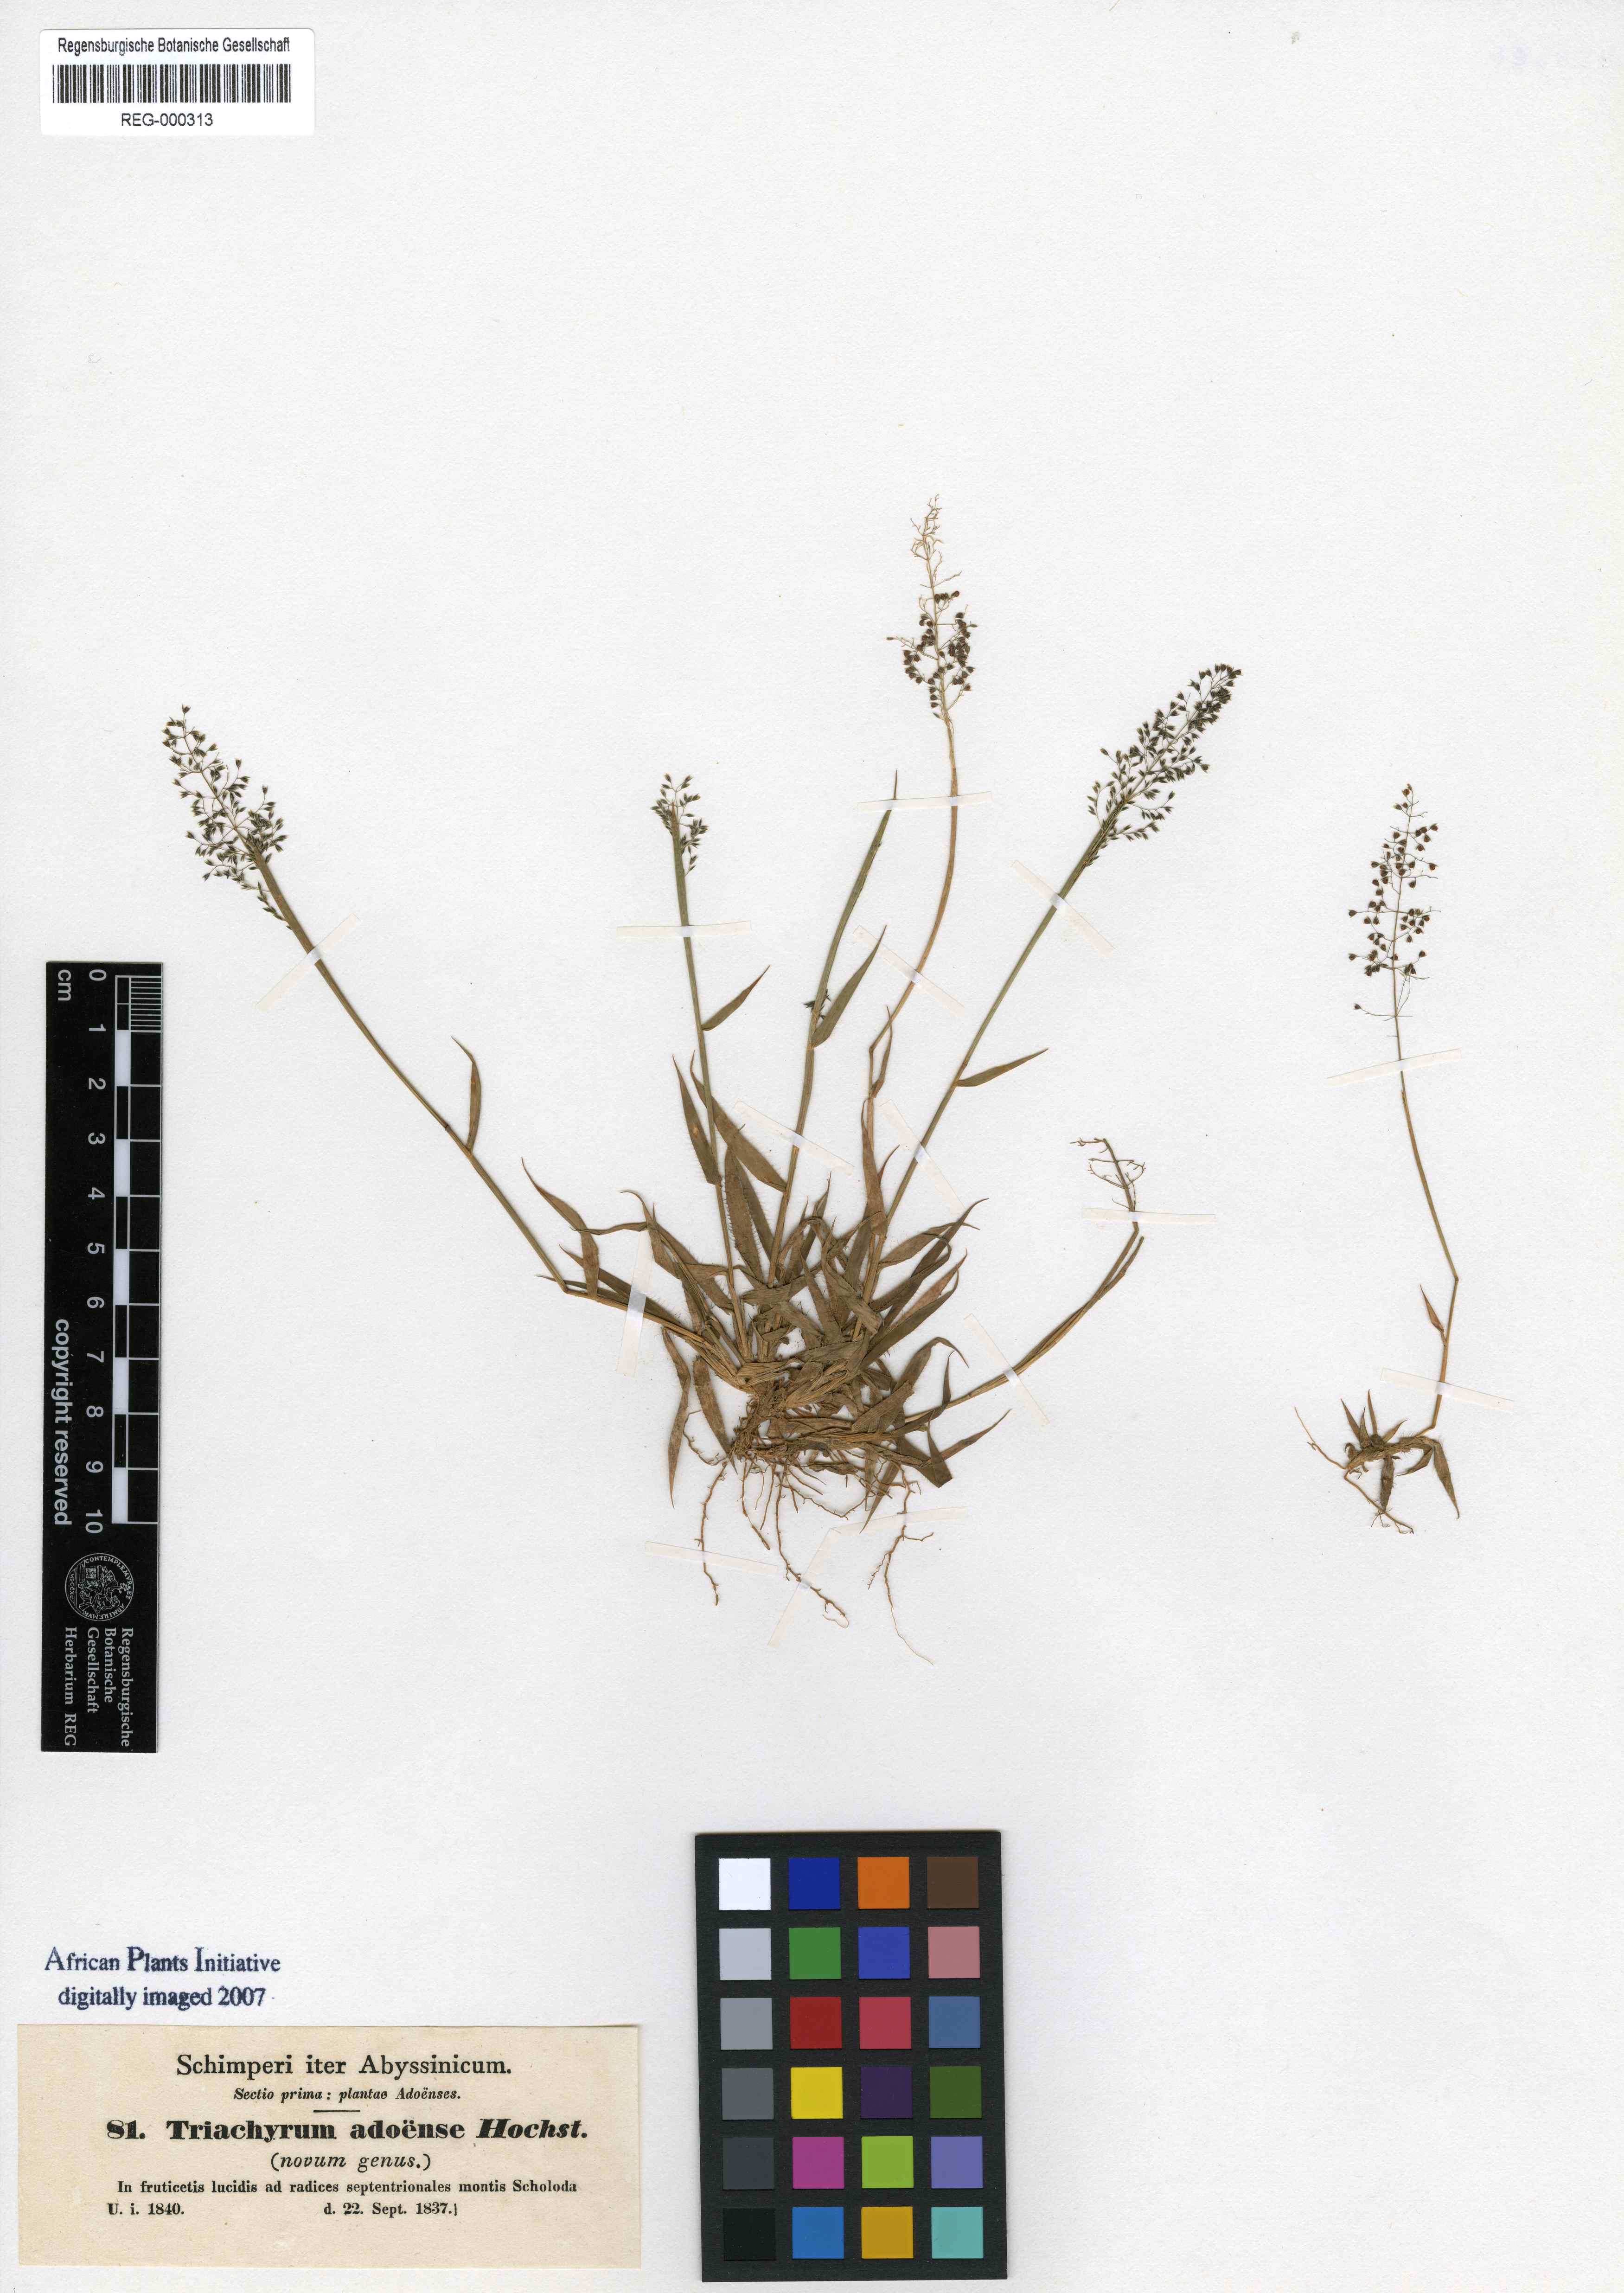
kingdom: Plantae
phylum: Tracheophyta
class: Liliopsida
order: Poales
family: Poaceae
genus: Sporobolus
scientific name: Sporobolus discosporus
